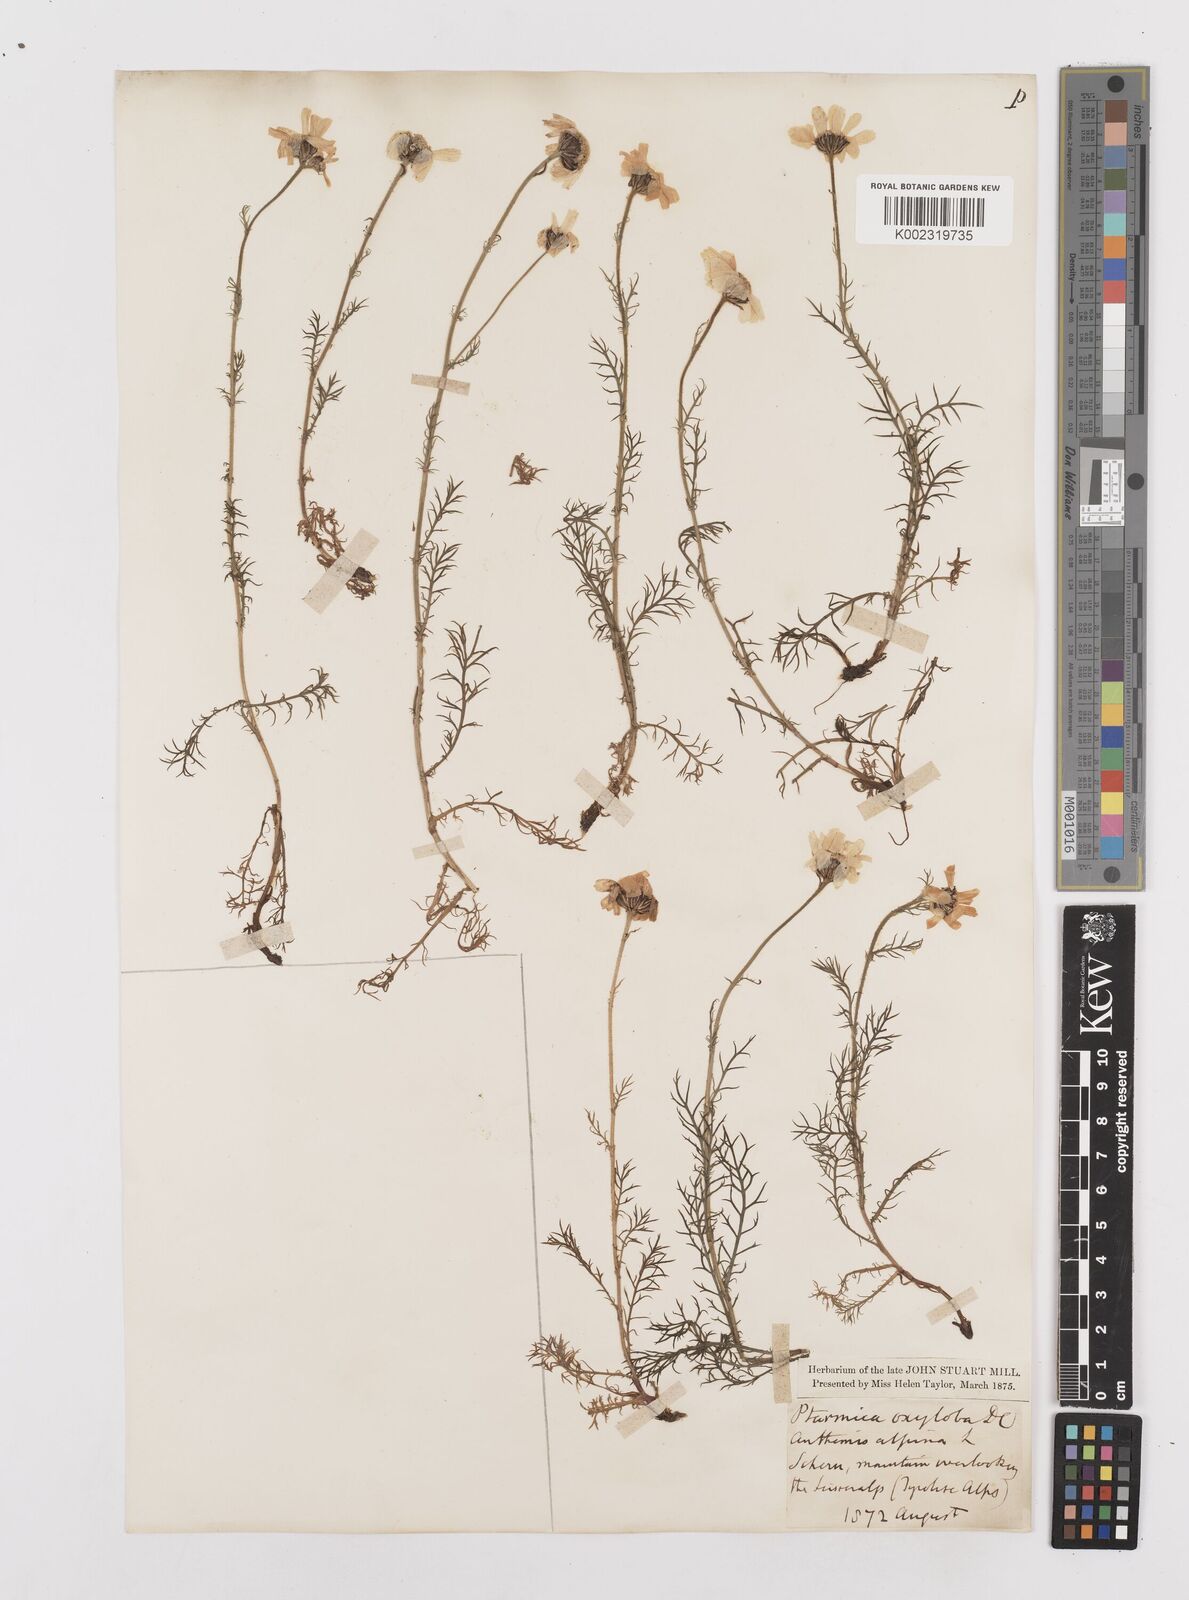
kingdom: Plantae
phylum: Tracheophyta
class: Magnoliopsida
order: Asterales
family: Asteraceae
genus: Achillea
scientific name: Achillea oxyloba
